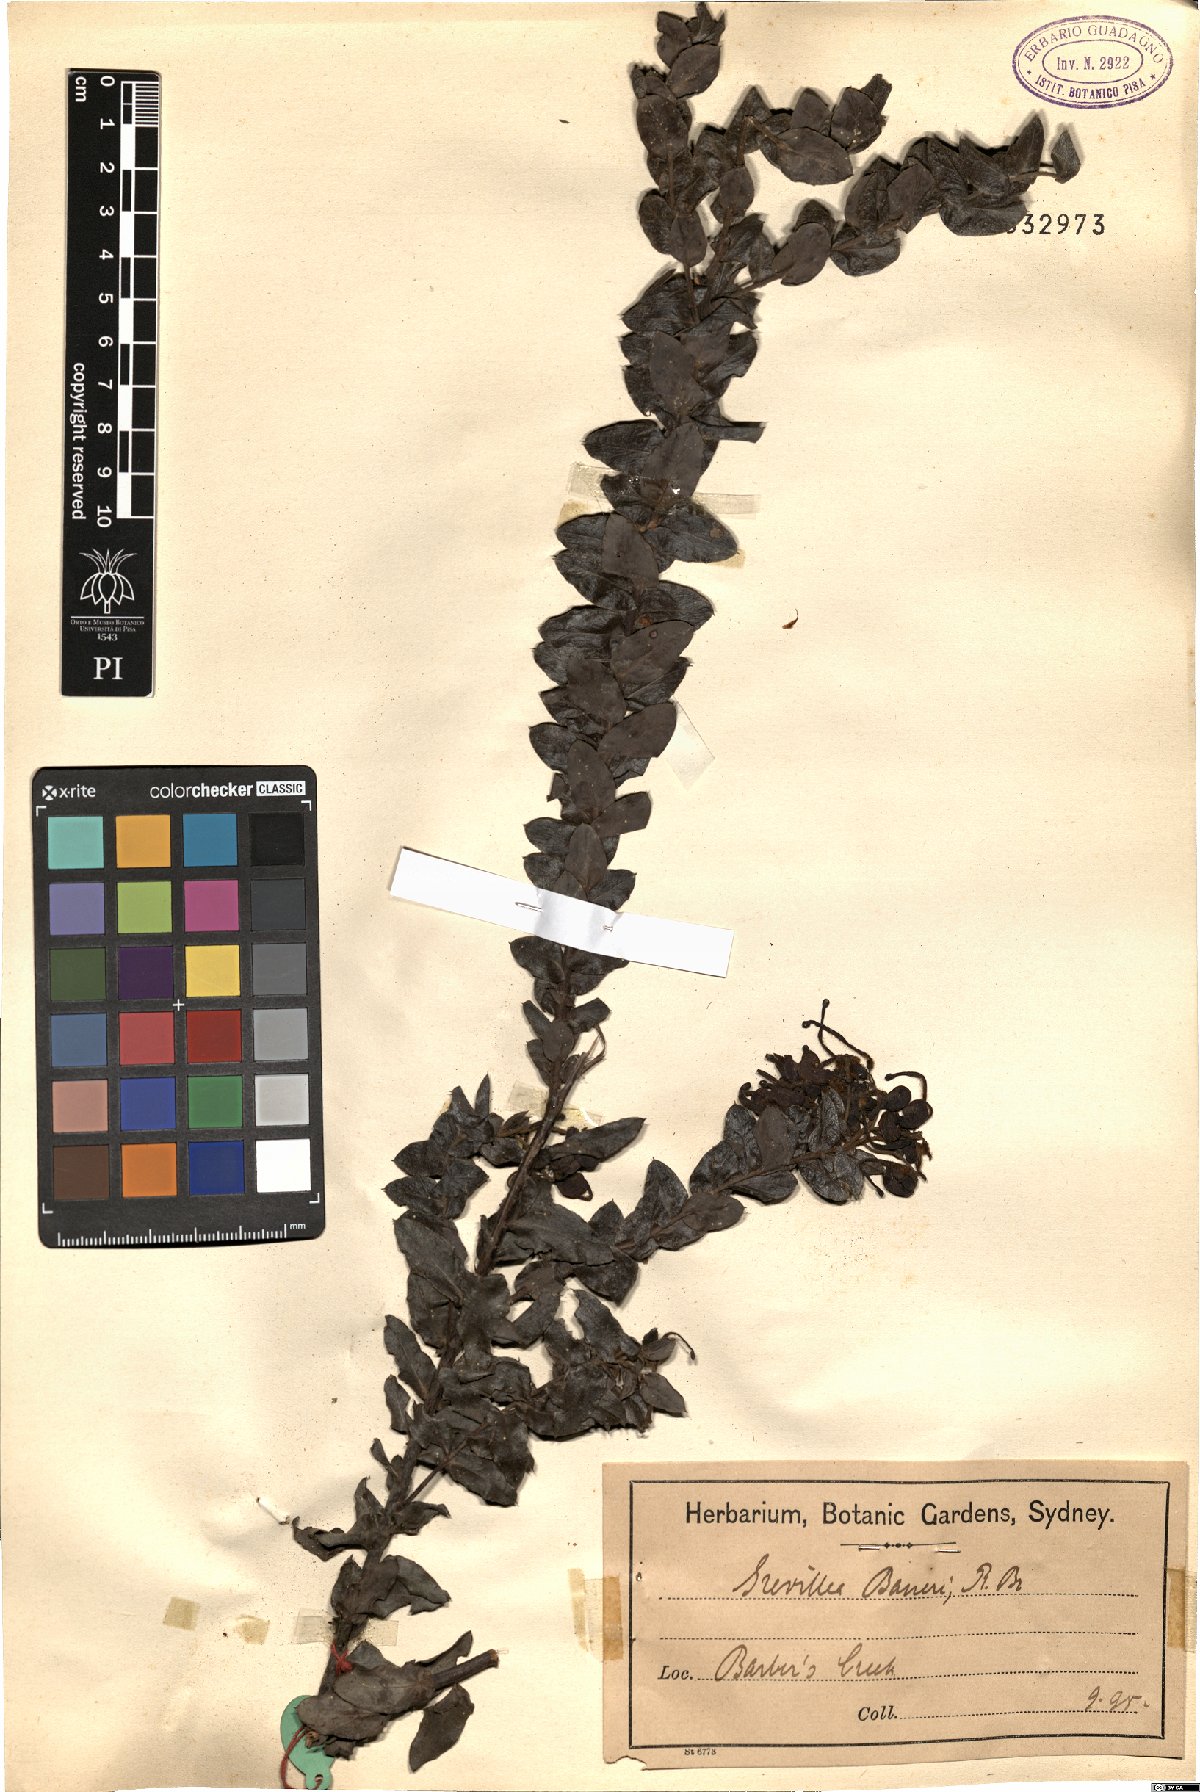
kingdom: Plantae
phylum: Tracheophyta
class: Magnoliopsida
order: Proteales
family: Proteaceae
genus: Grevillea
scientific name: Grevillea baueri
